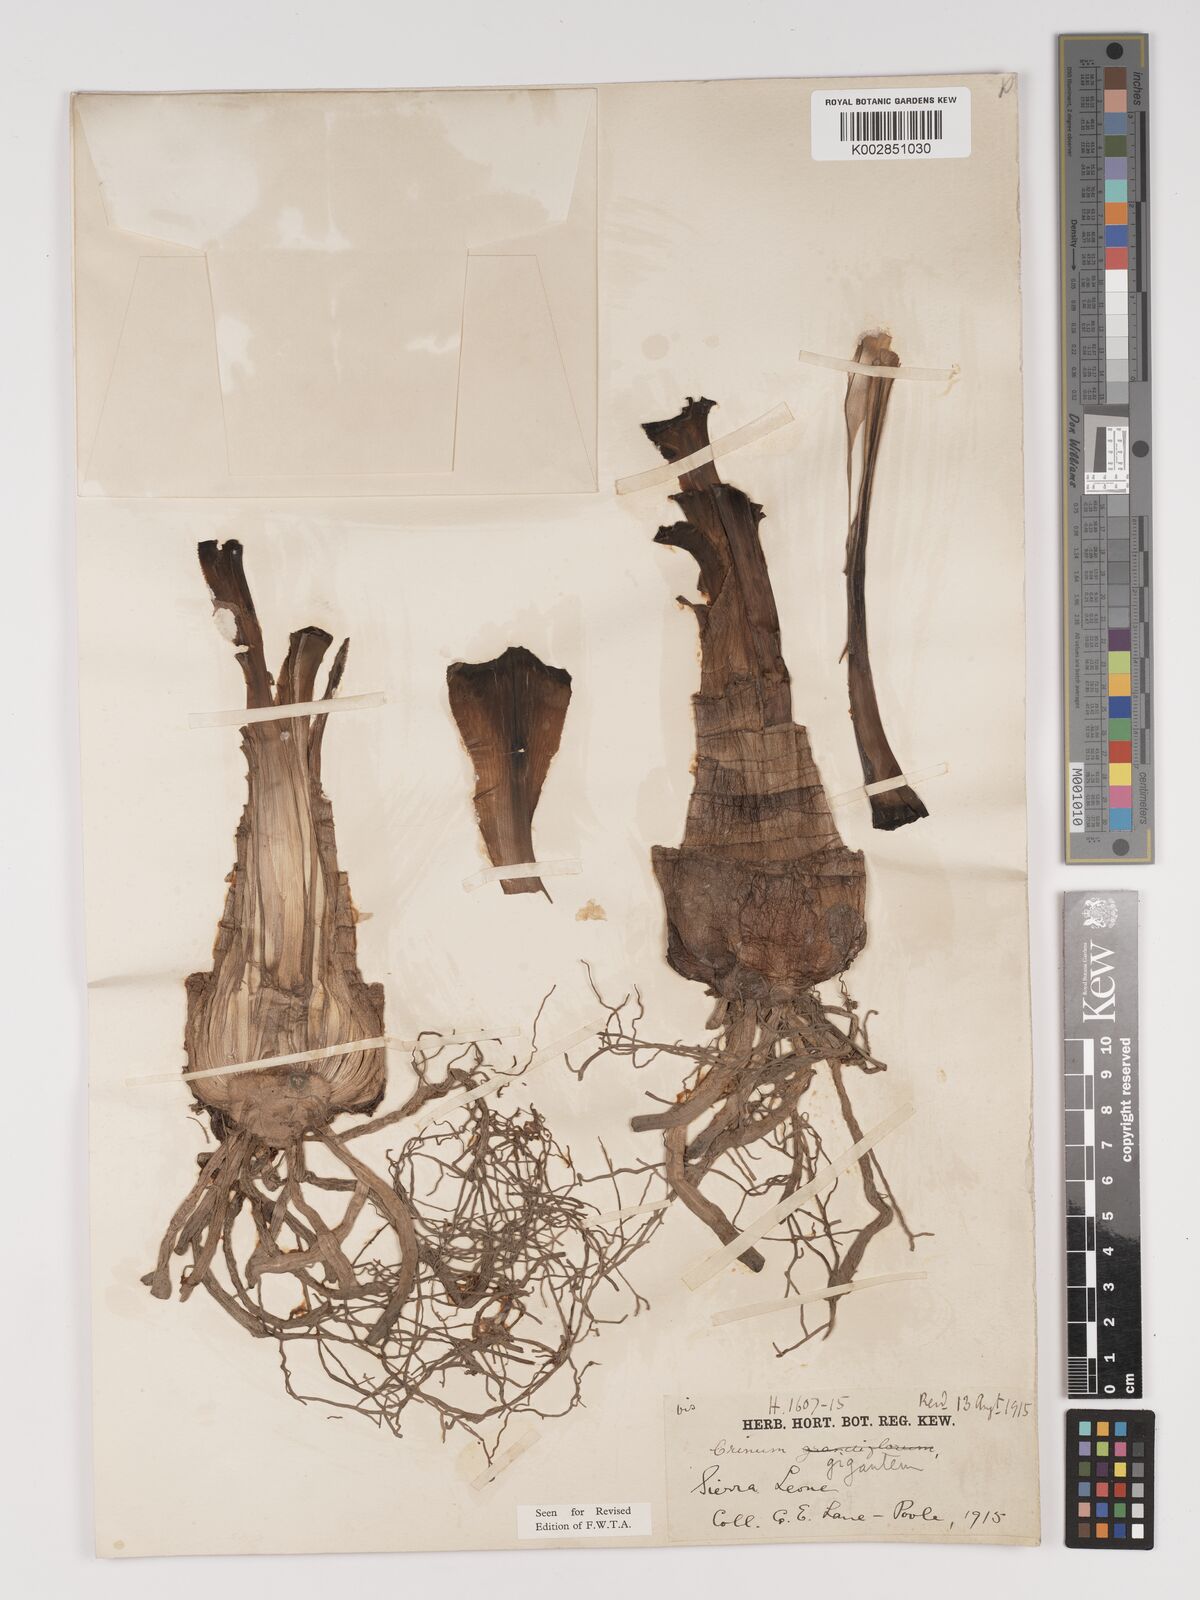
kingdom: Plantae
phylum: Tracheophyta
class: Liliopsida
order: Asparagales
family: Amaryllidaceae
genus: Crinum
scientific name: Crinum jagus
